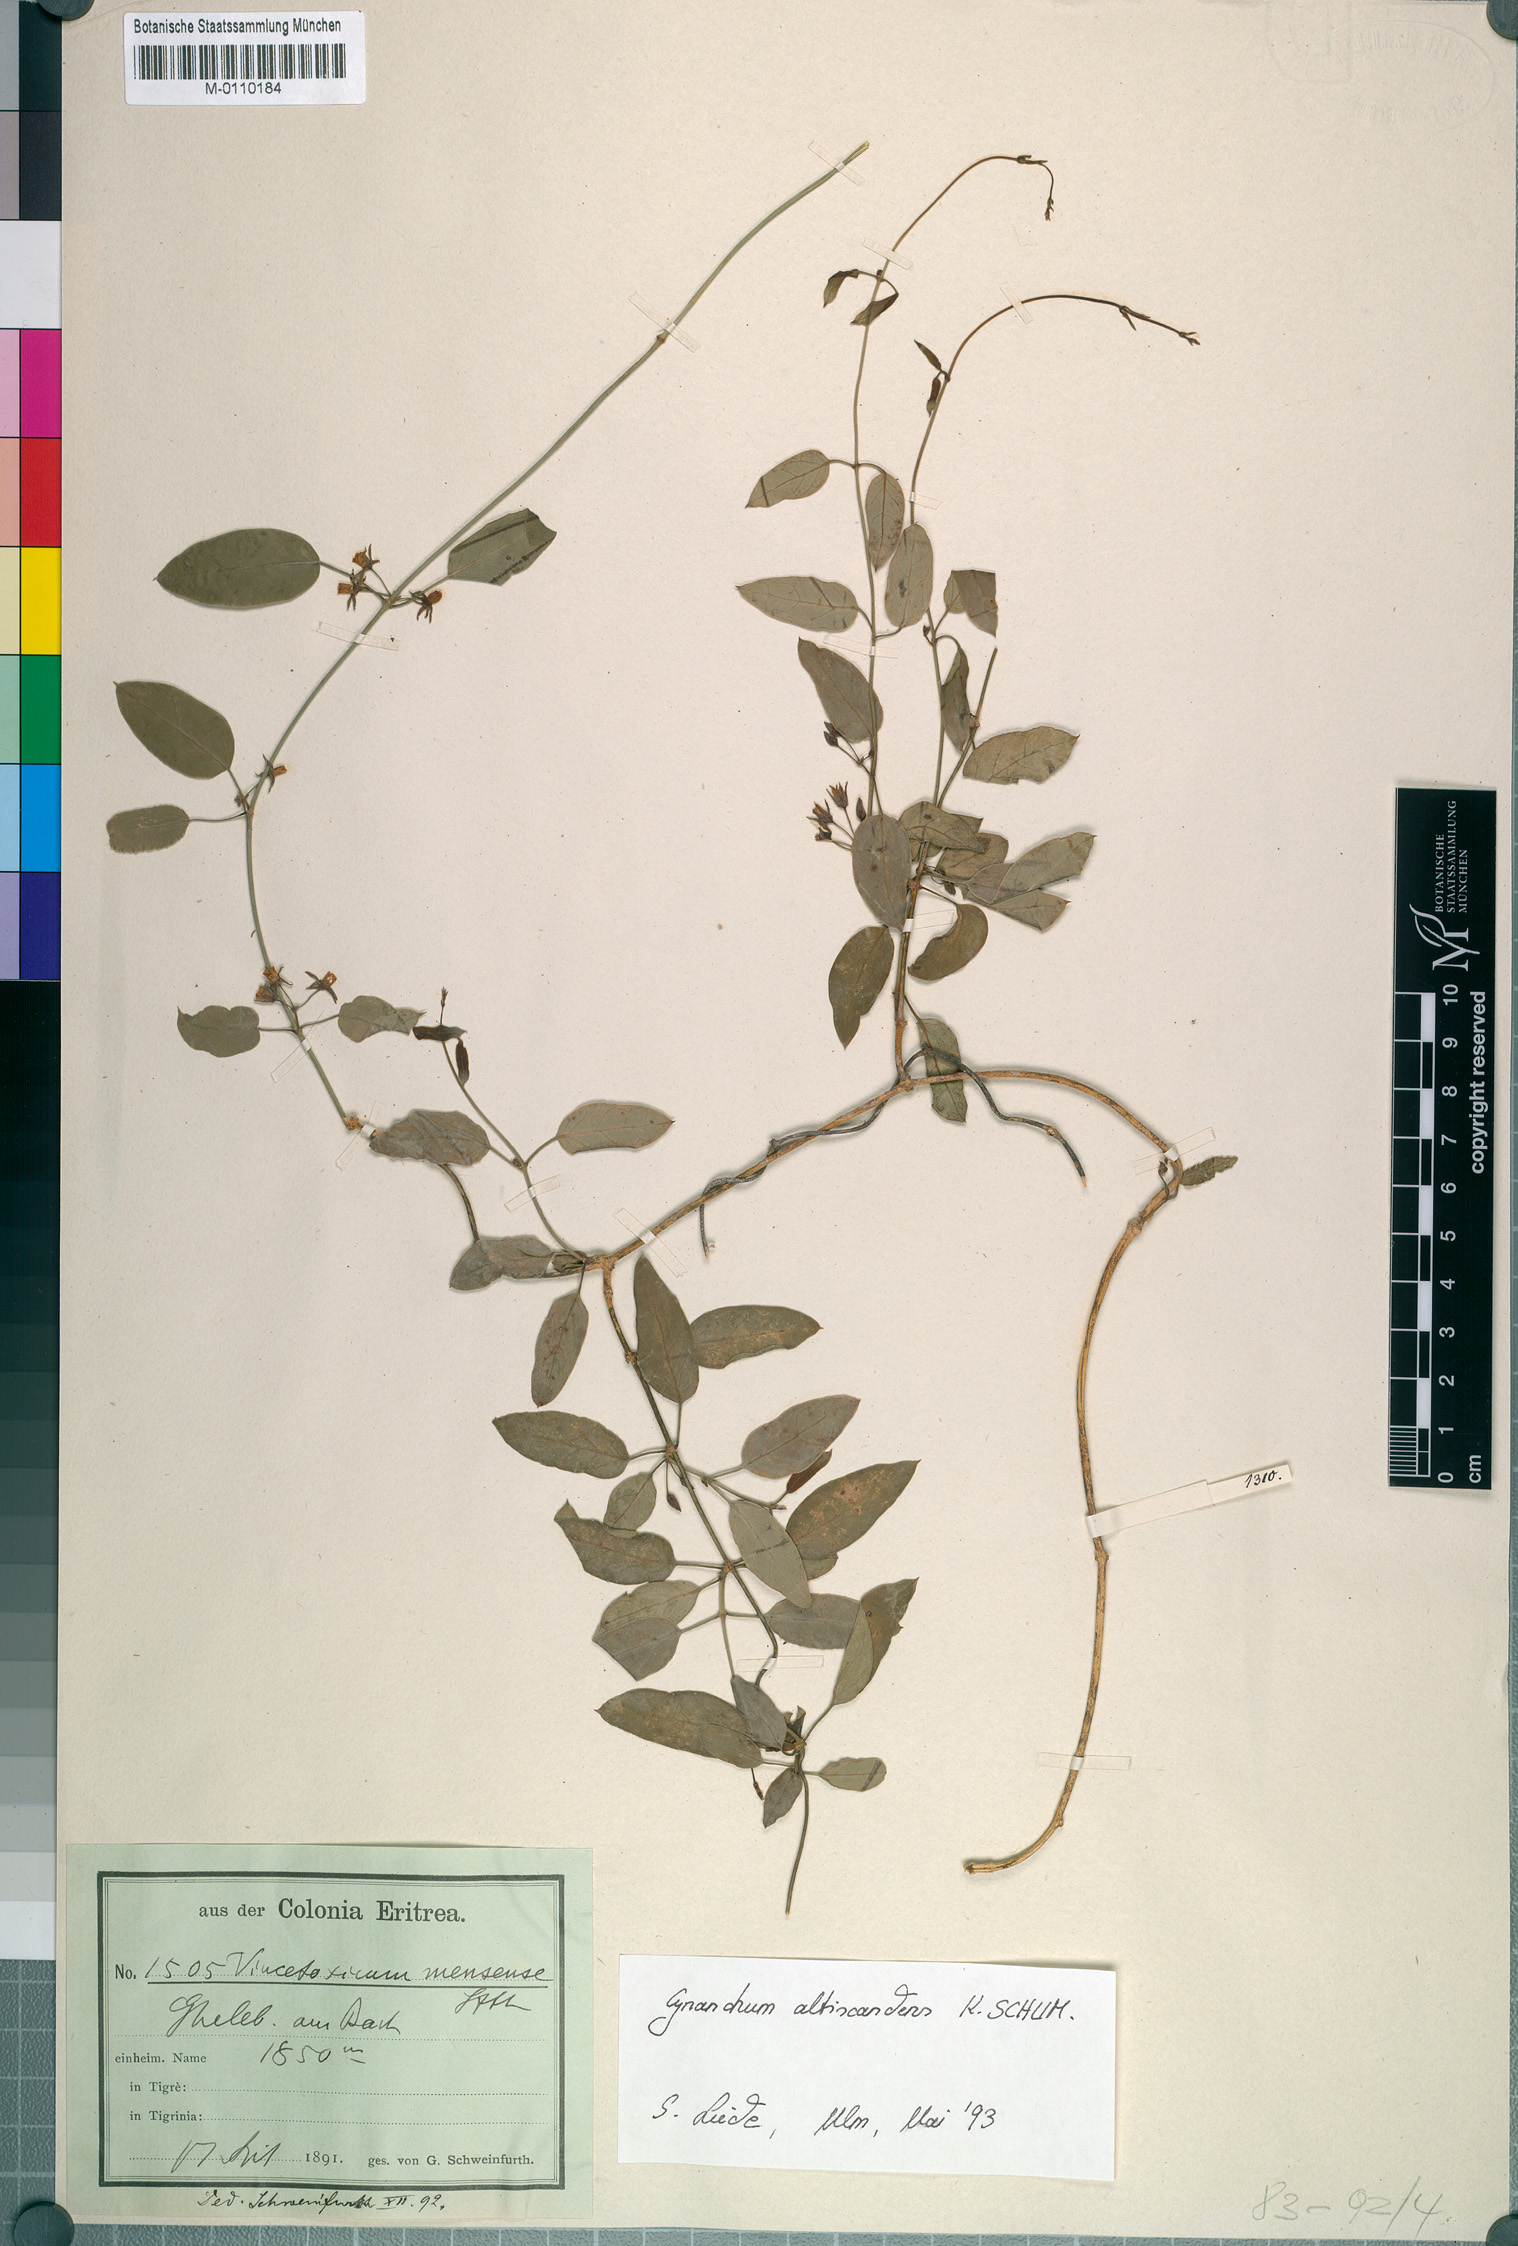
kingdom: Plantae
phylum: Tracheophyta
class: Magnoliopsida
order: Gentianales
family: Apocynaceae
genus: Cynanchum
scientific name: Cynanchum altiscandens
